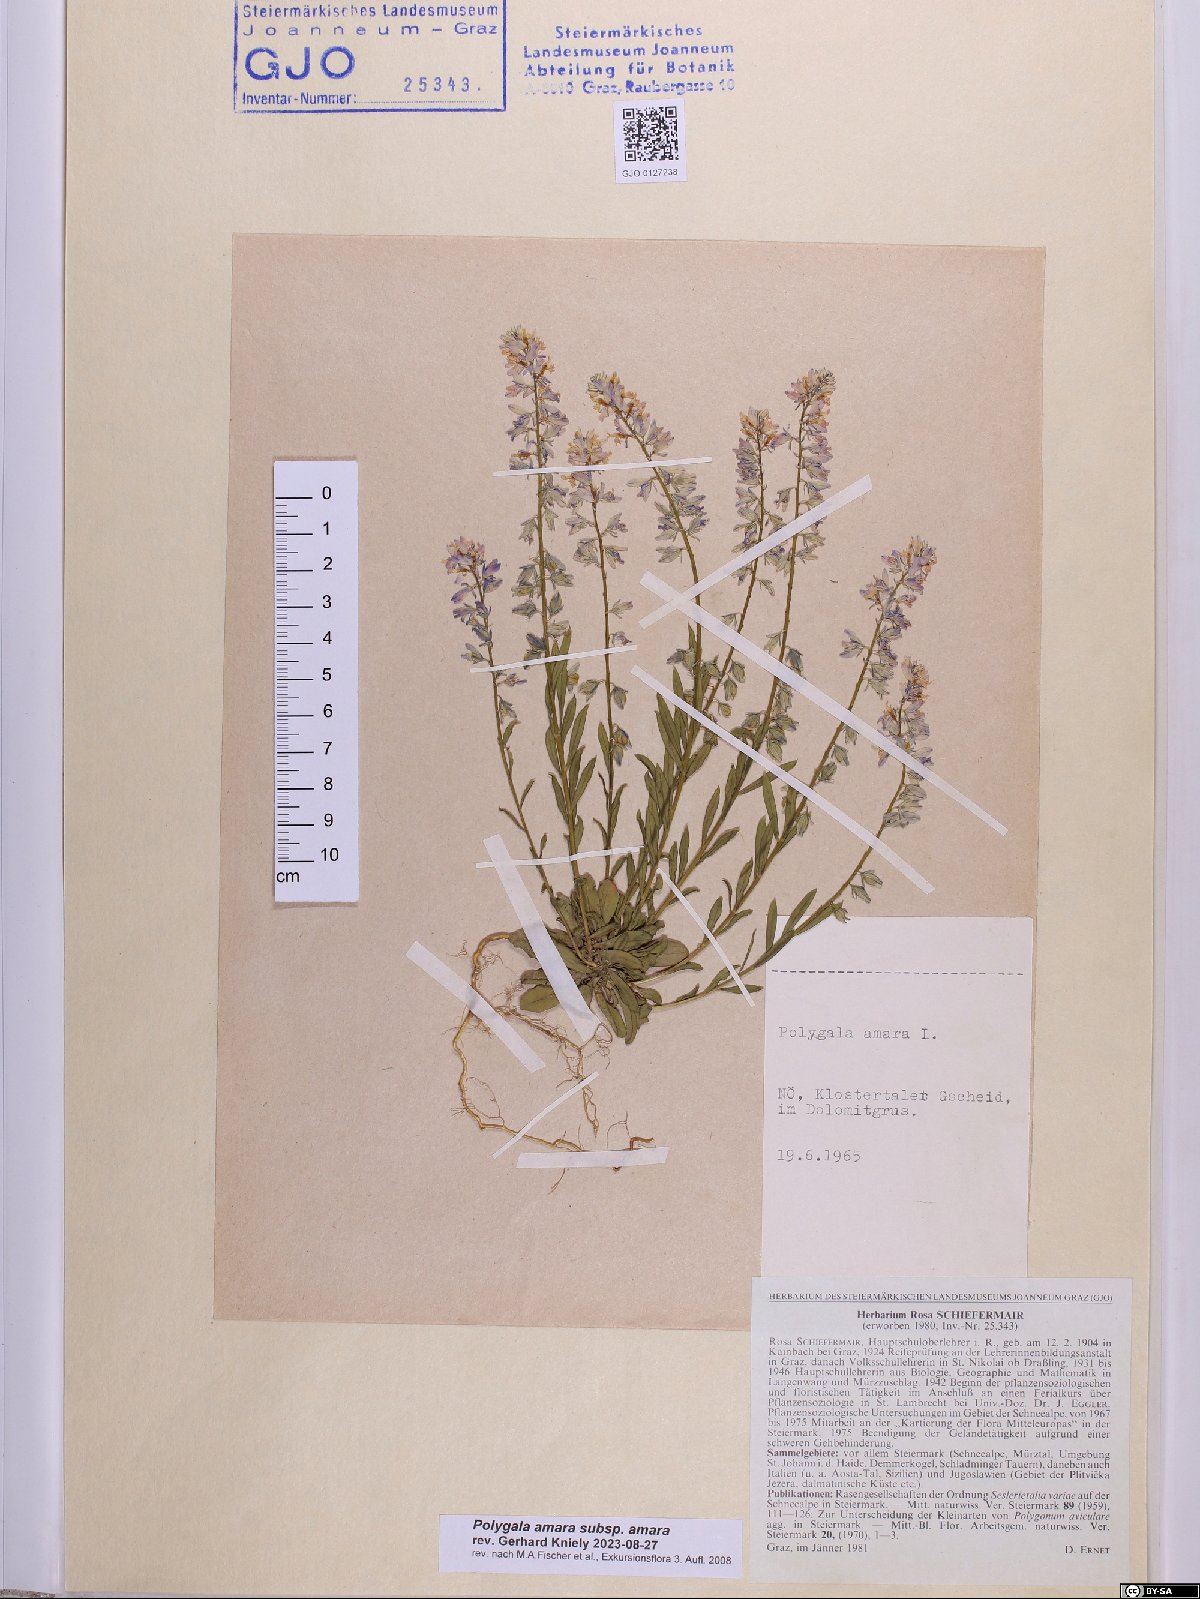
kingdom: Plantae
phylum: Tracheophyta
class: Magnoliopsida
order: Fabales
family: Polygalaceae
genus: Polygala
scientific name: Polygala amara
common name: Milkwort
